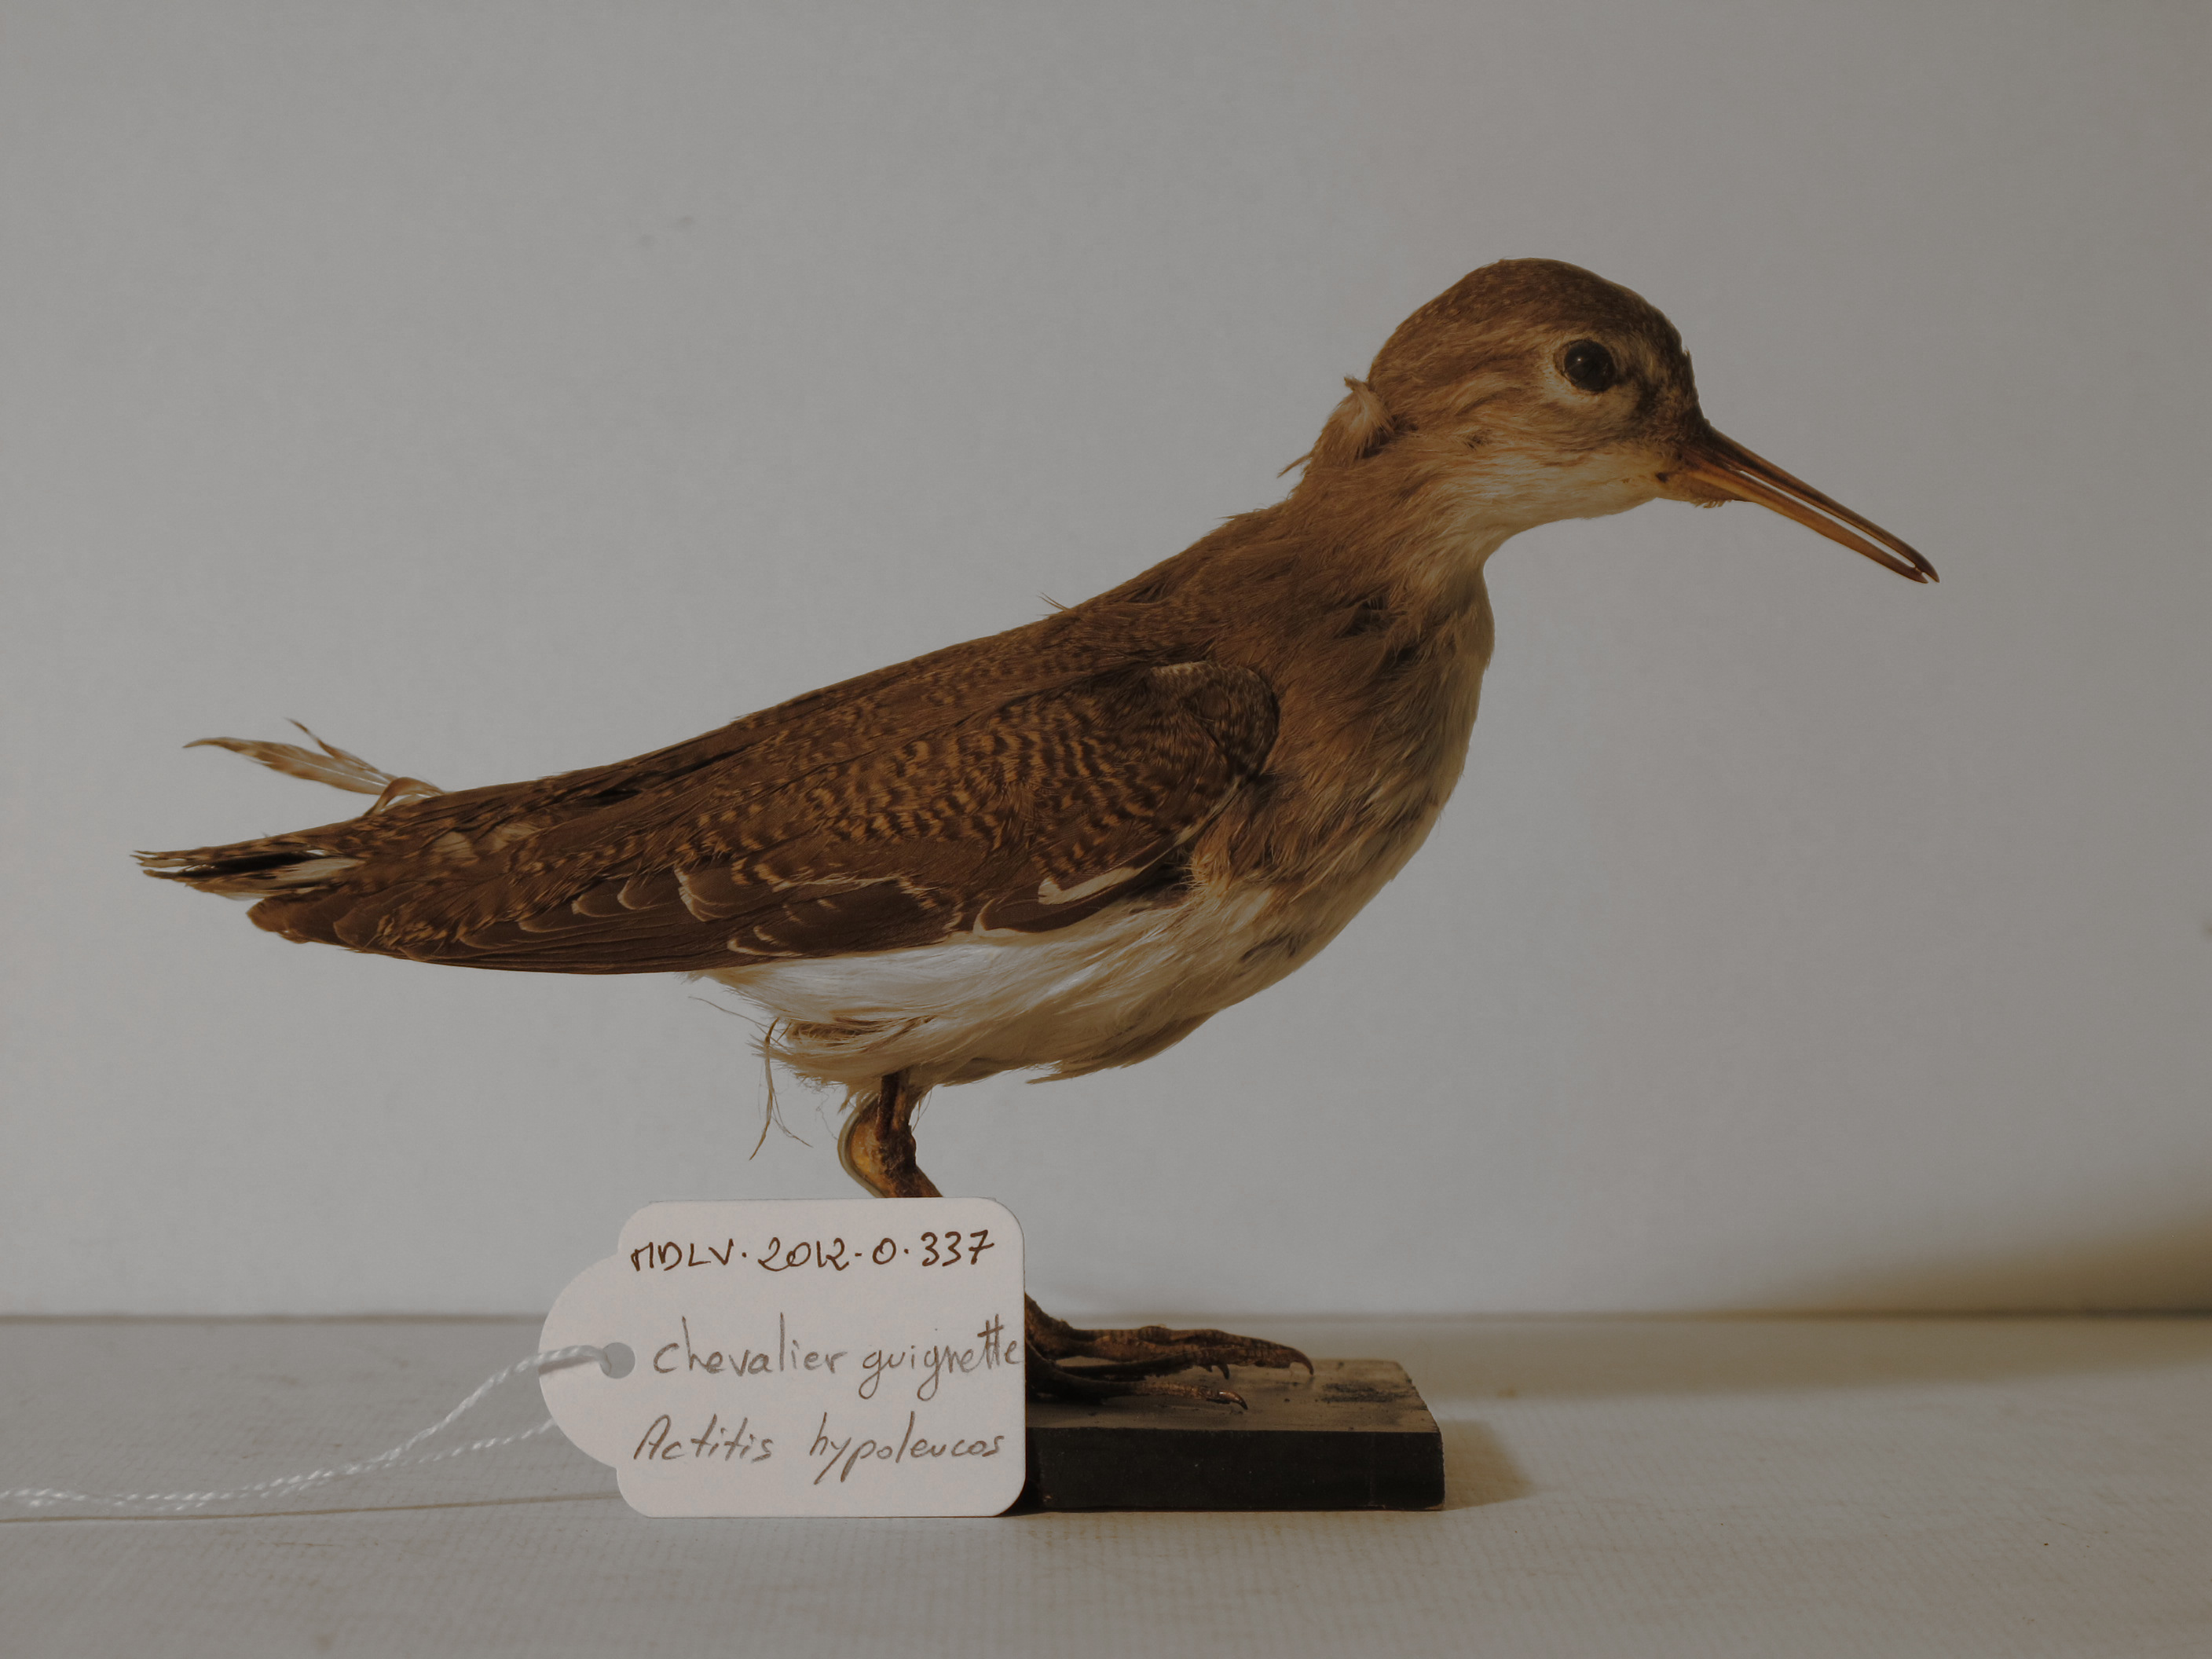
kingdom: Animalia
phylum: Chordata
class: Aves
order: Charadriiformes
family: Scolopacidae
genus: Actitis
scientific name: Actitis hypoleucos
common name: Common Sandpiper
